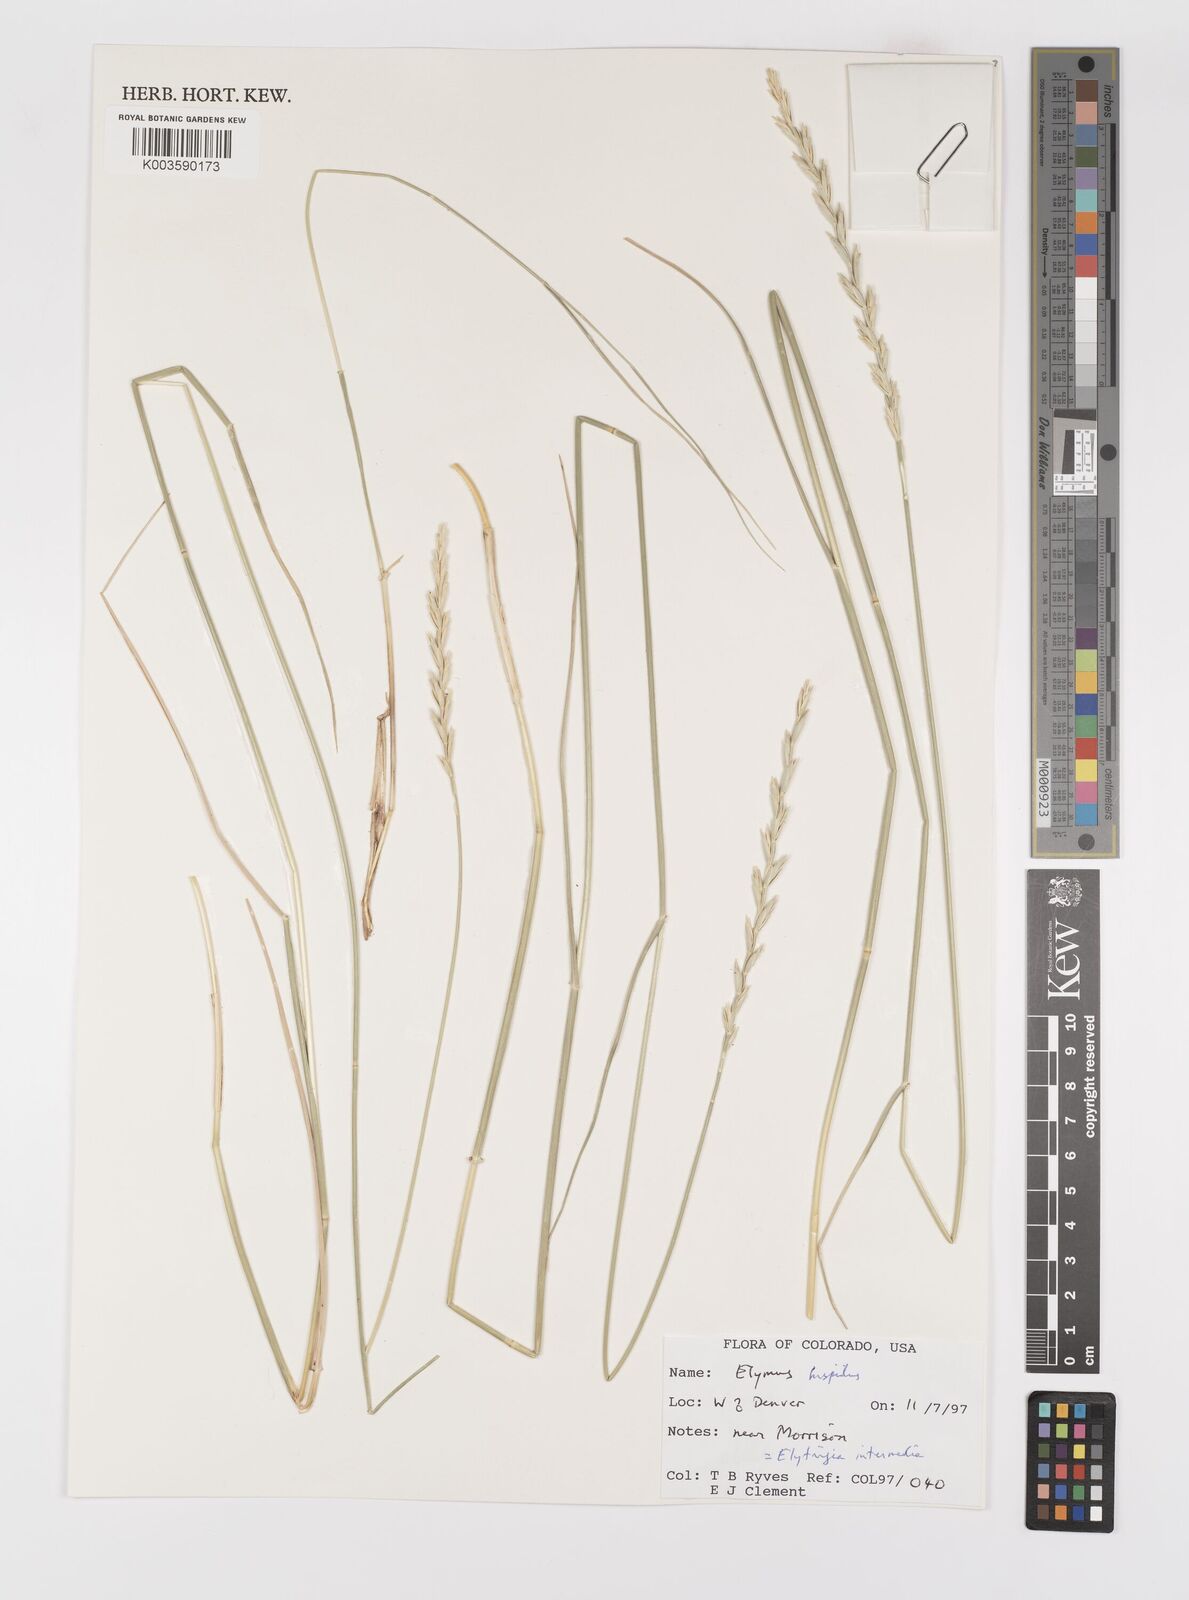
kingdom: Plantae
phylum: Tracheophyta
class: Liliopsida
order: Poales
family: Poaceae
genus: Thinopyrum
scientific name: Thinopyrum intermedium
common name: Intermediate wheatgrass
